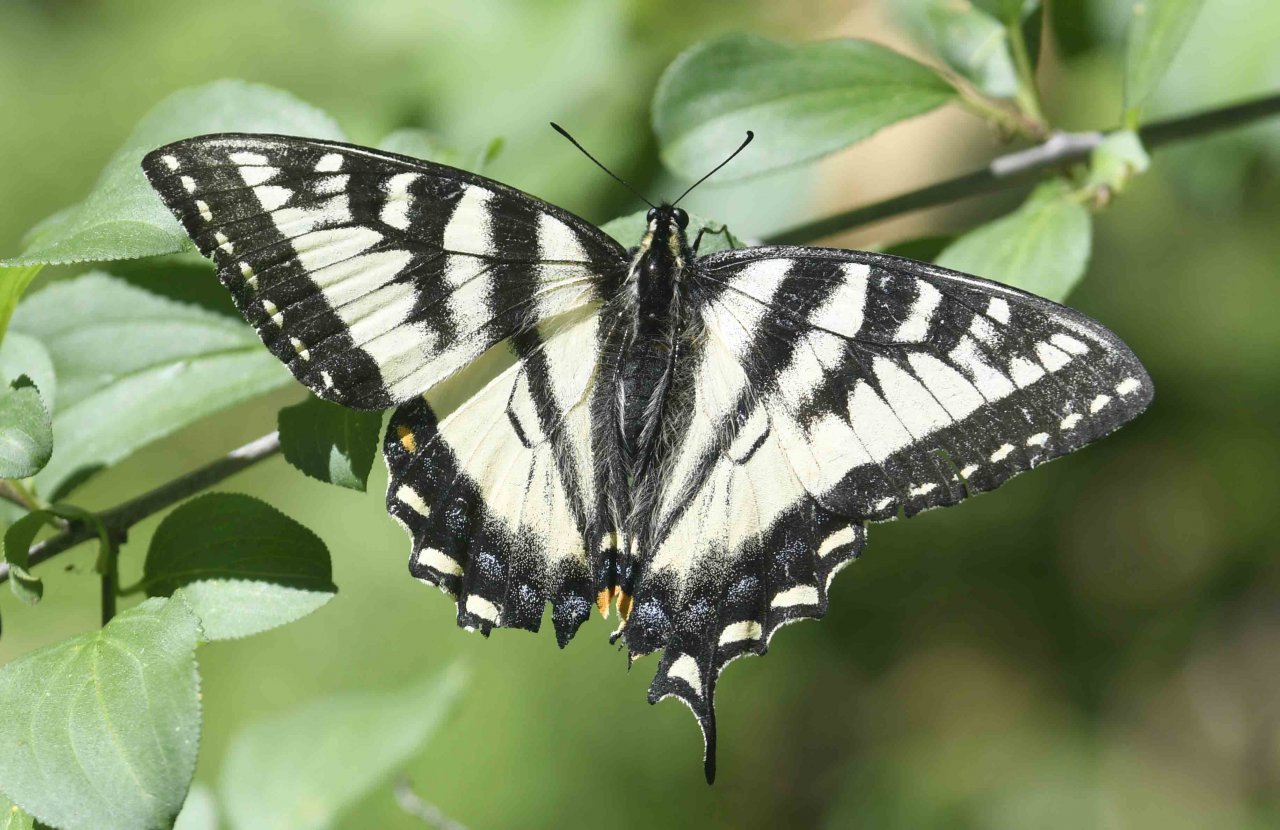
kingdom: Animalia
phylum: Arthropoda
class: Insecta
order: Lepidoptera
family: Papilionidae
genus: Pterourus
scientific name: Pterourus canadensis
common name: Canadian Tiger Swallowtail
